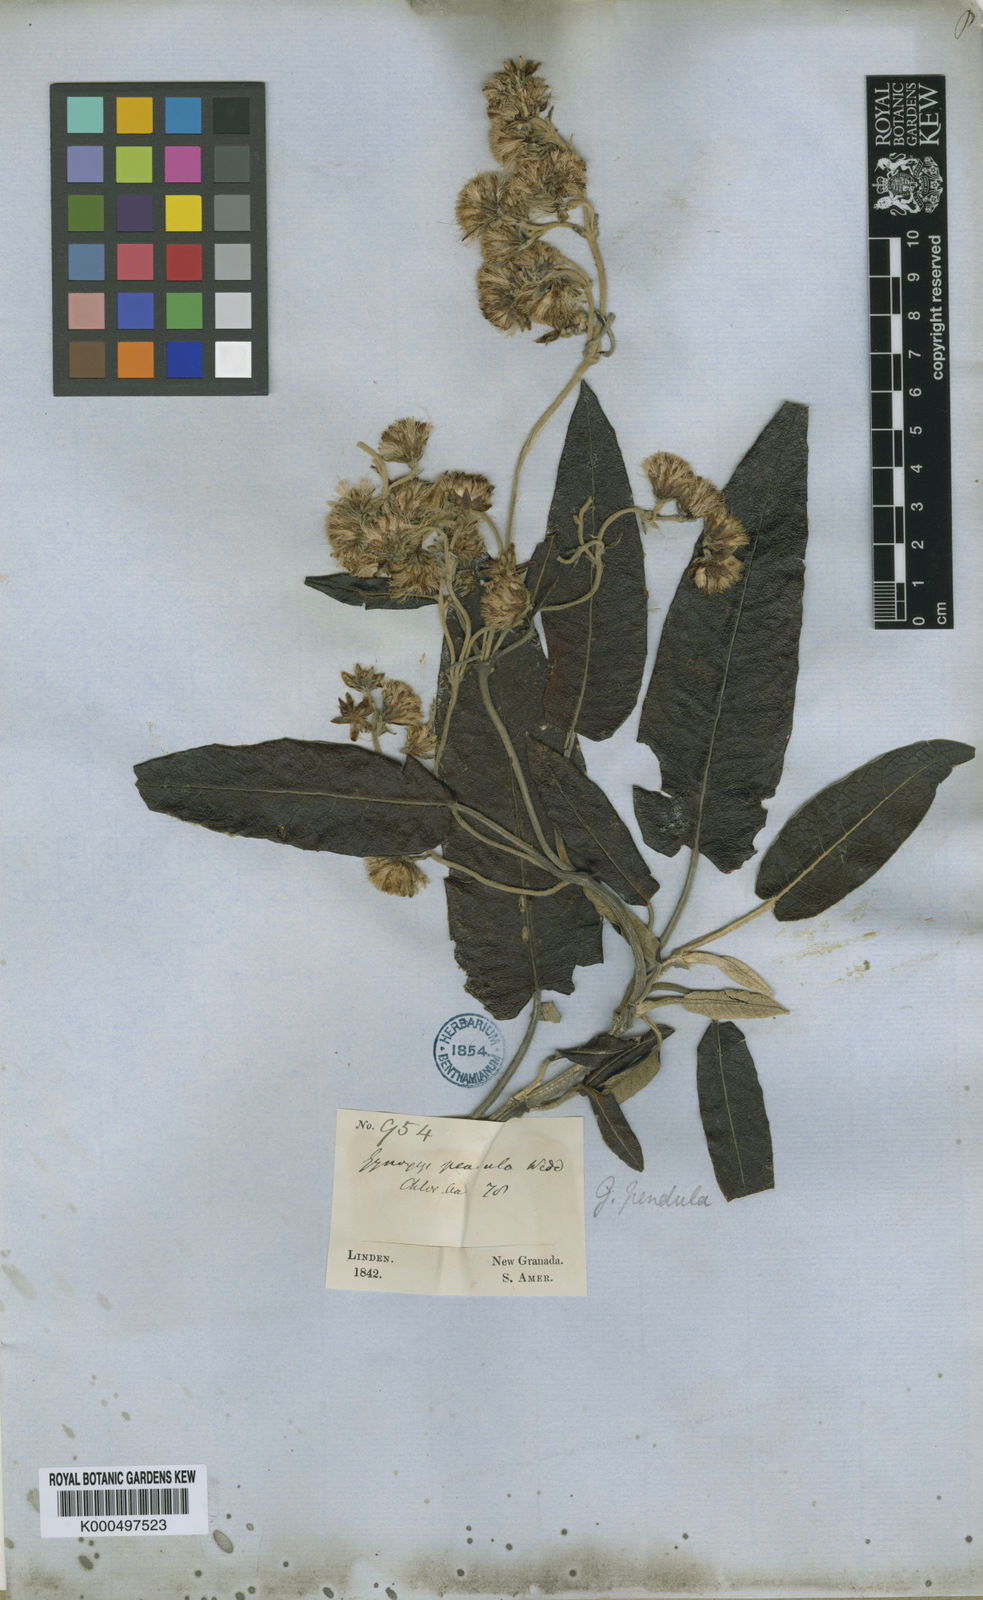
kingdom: Plantae
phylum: Tracheophyta
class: Magnoliopsida
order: Asterales
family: Asteraceae
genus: Gynoxys
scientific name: Gynoxys pendula
